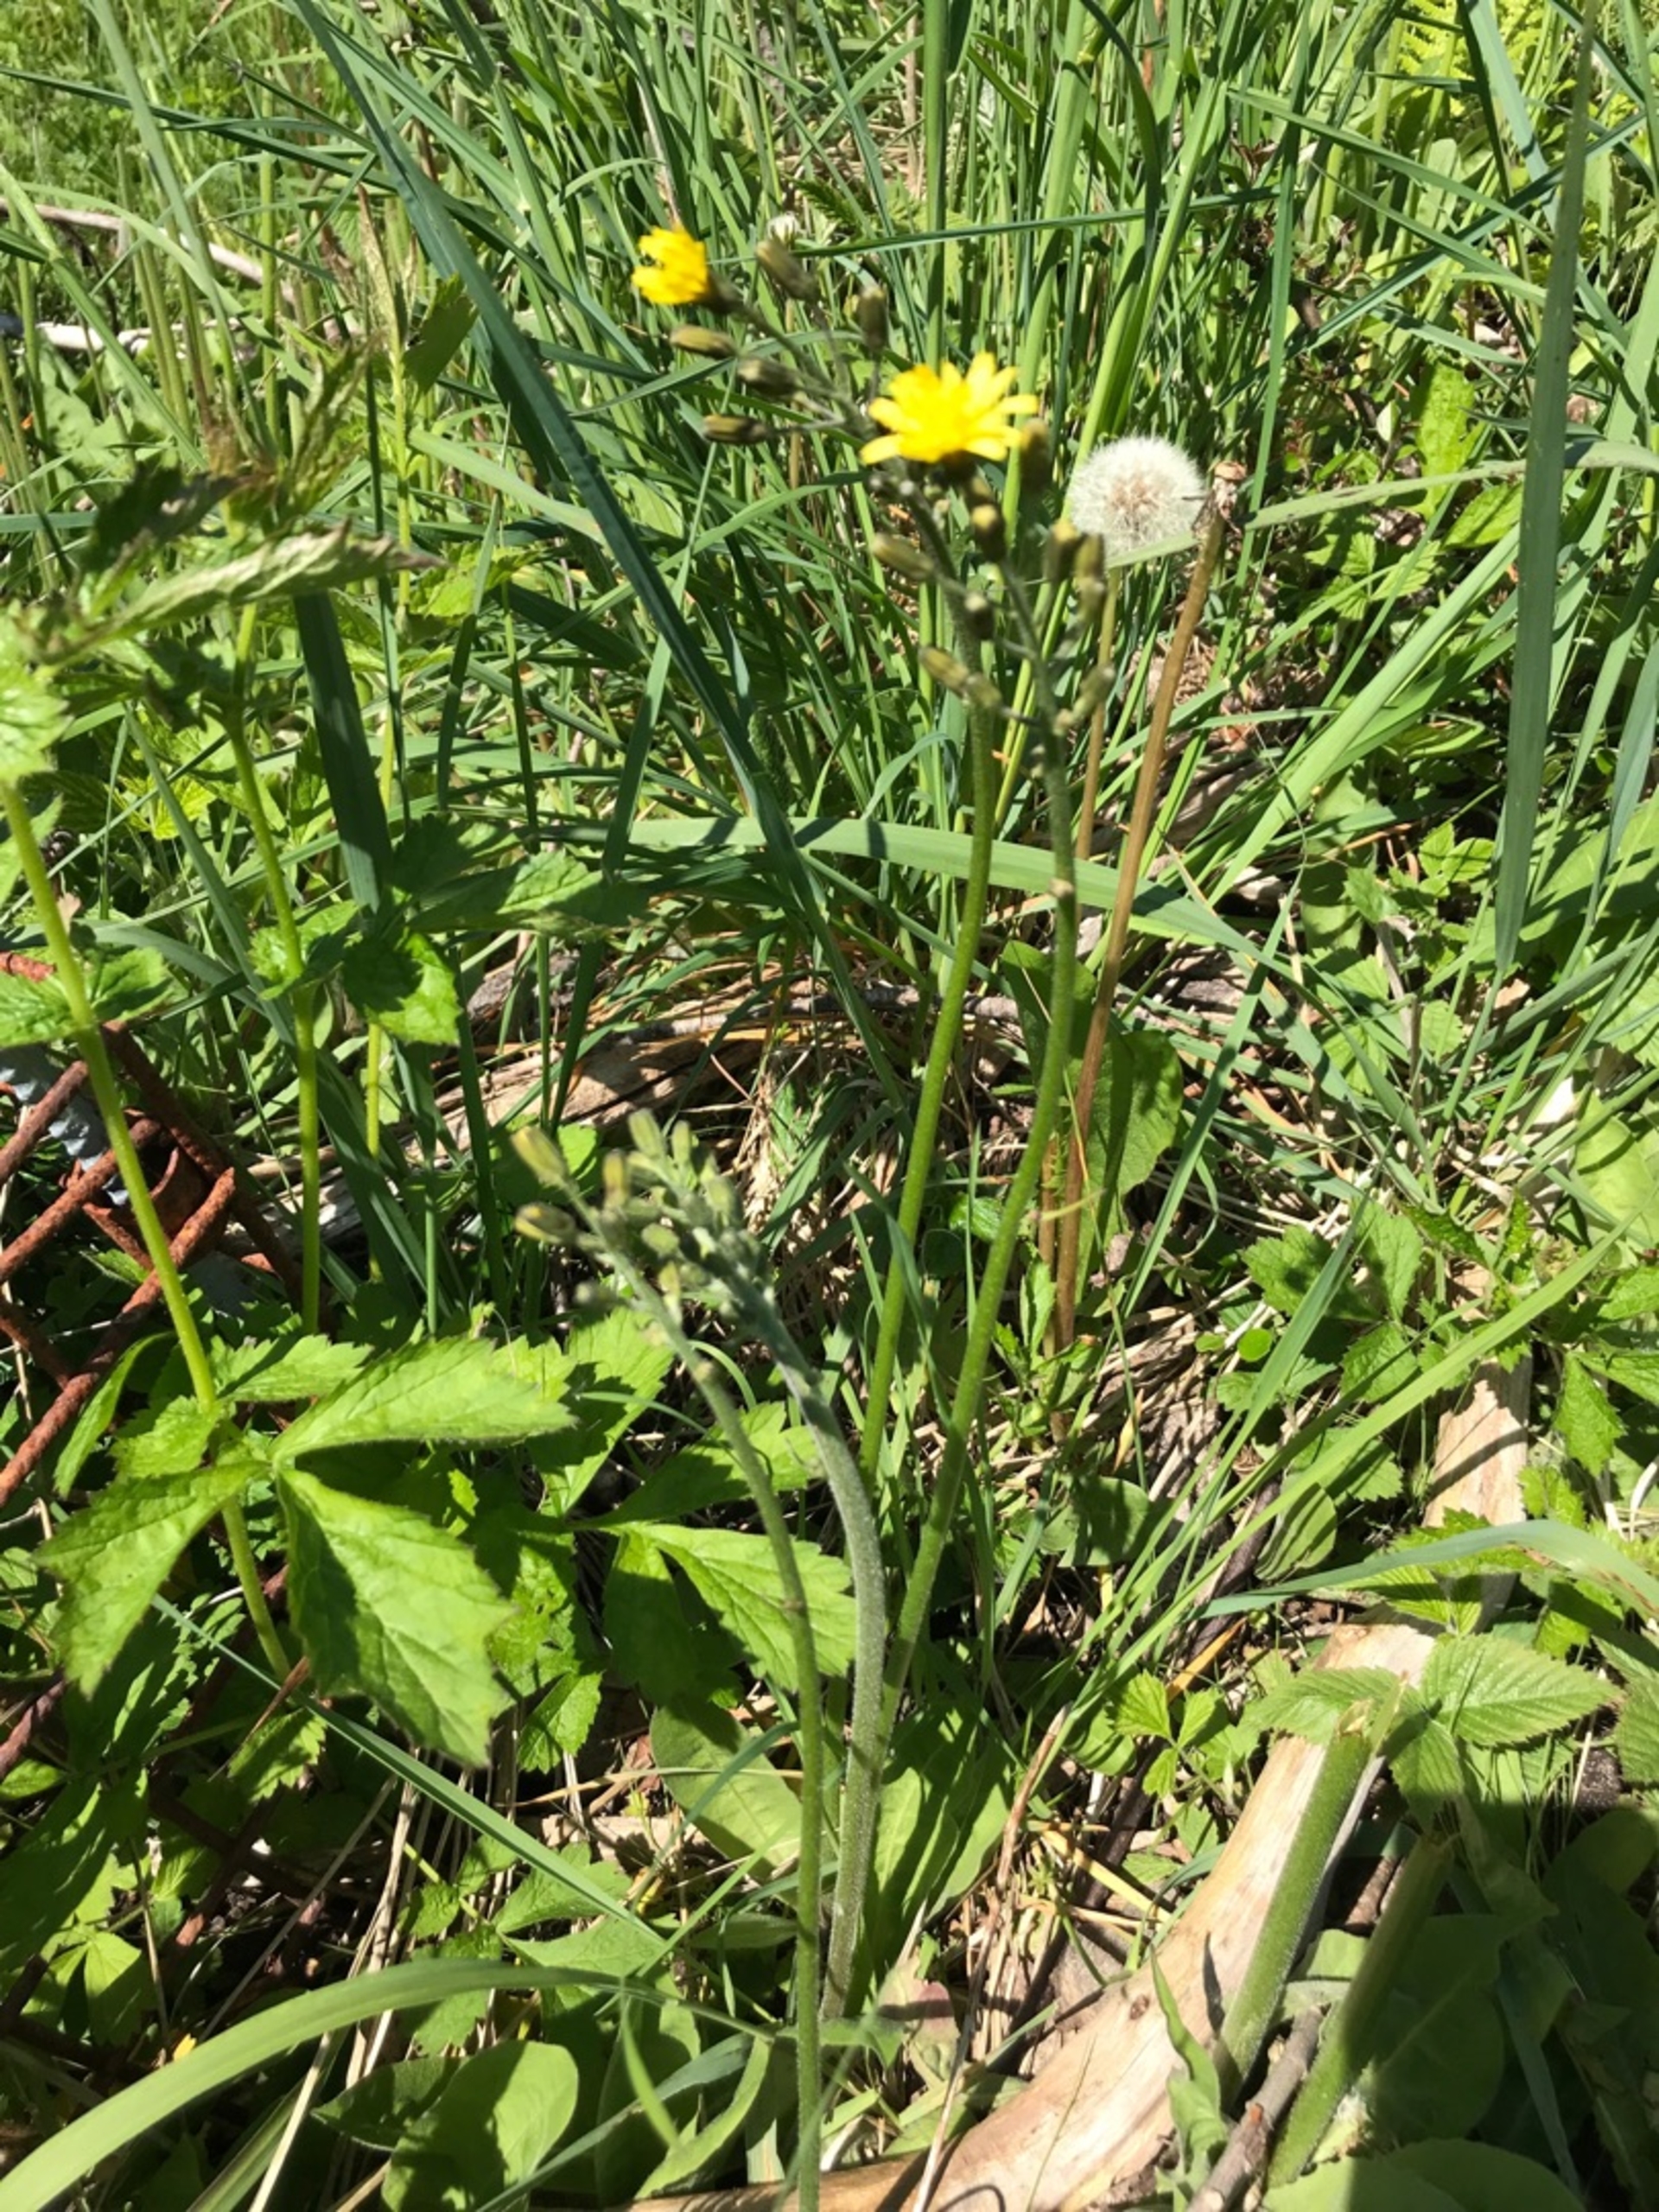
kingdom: Plantae
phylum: Tracheophyta
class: Magnoliopsida
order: Asterales
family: Asteraceae
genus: Crepis
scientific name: Crepis praemorsa
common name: Afbidt høgeskæg
